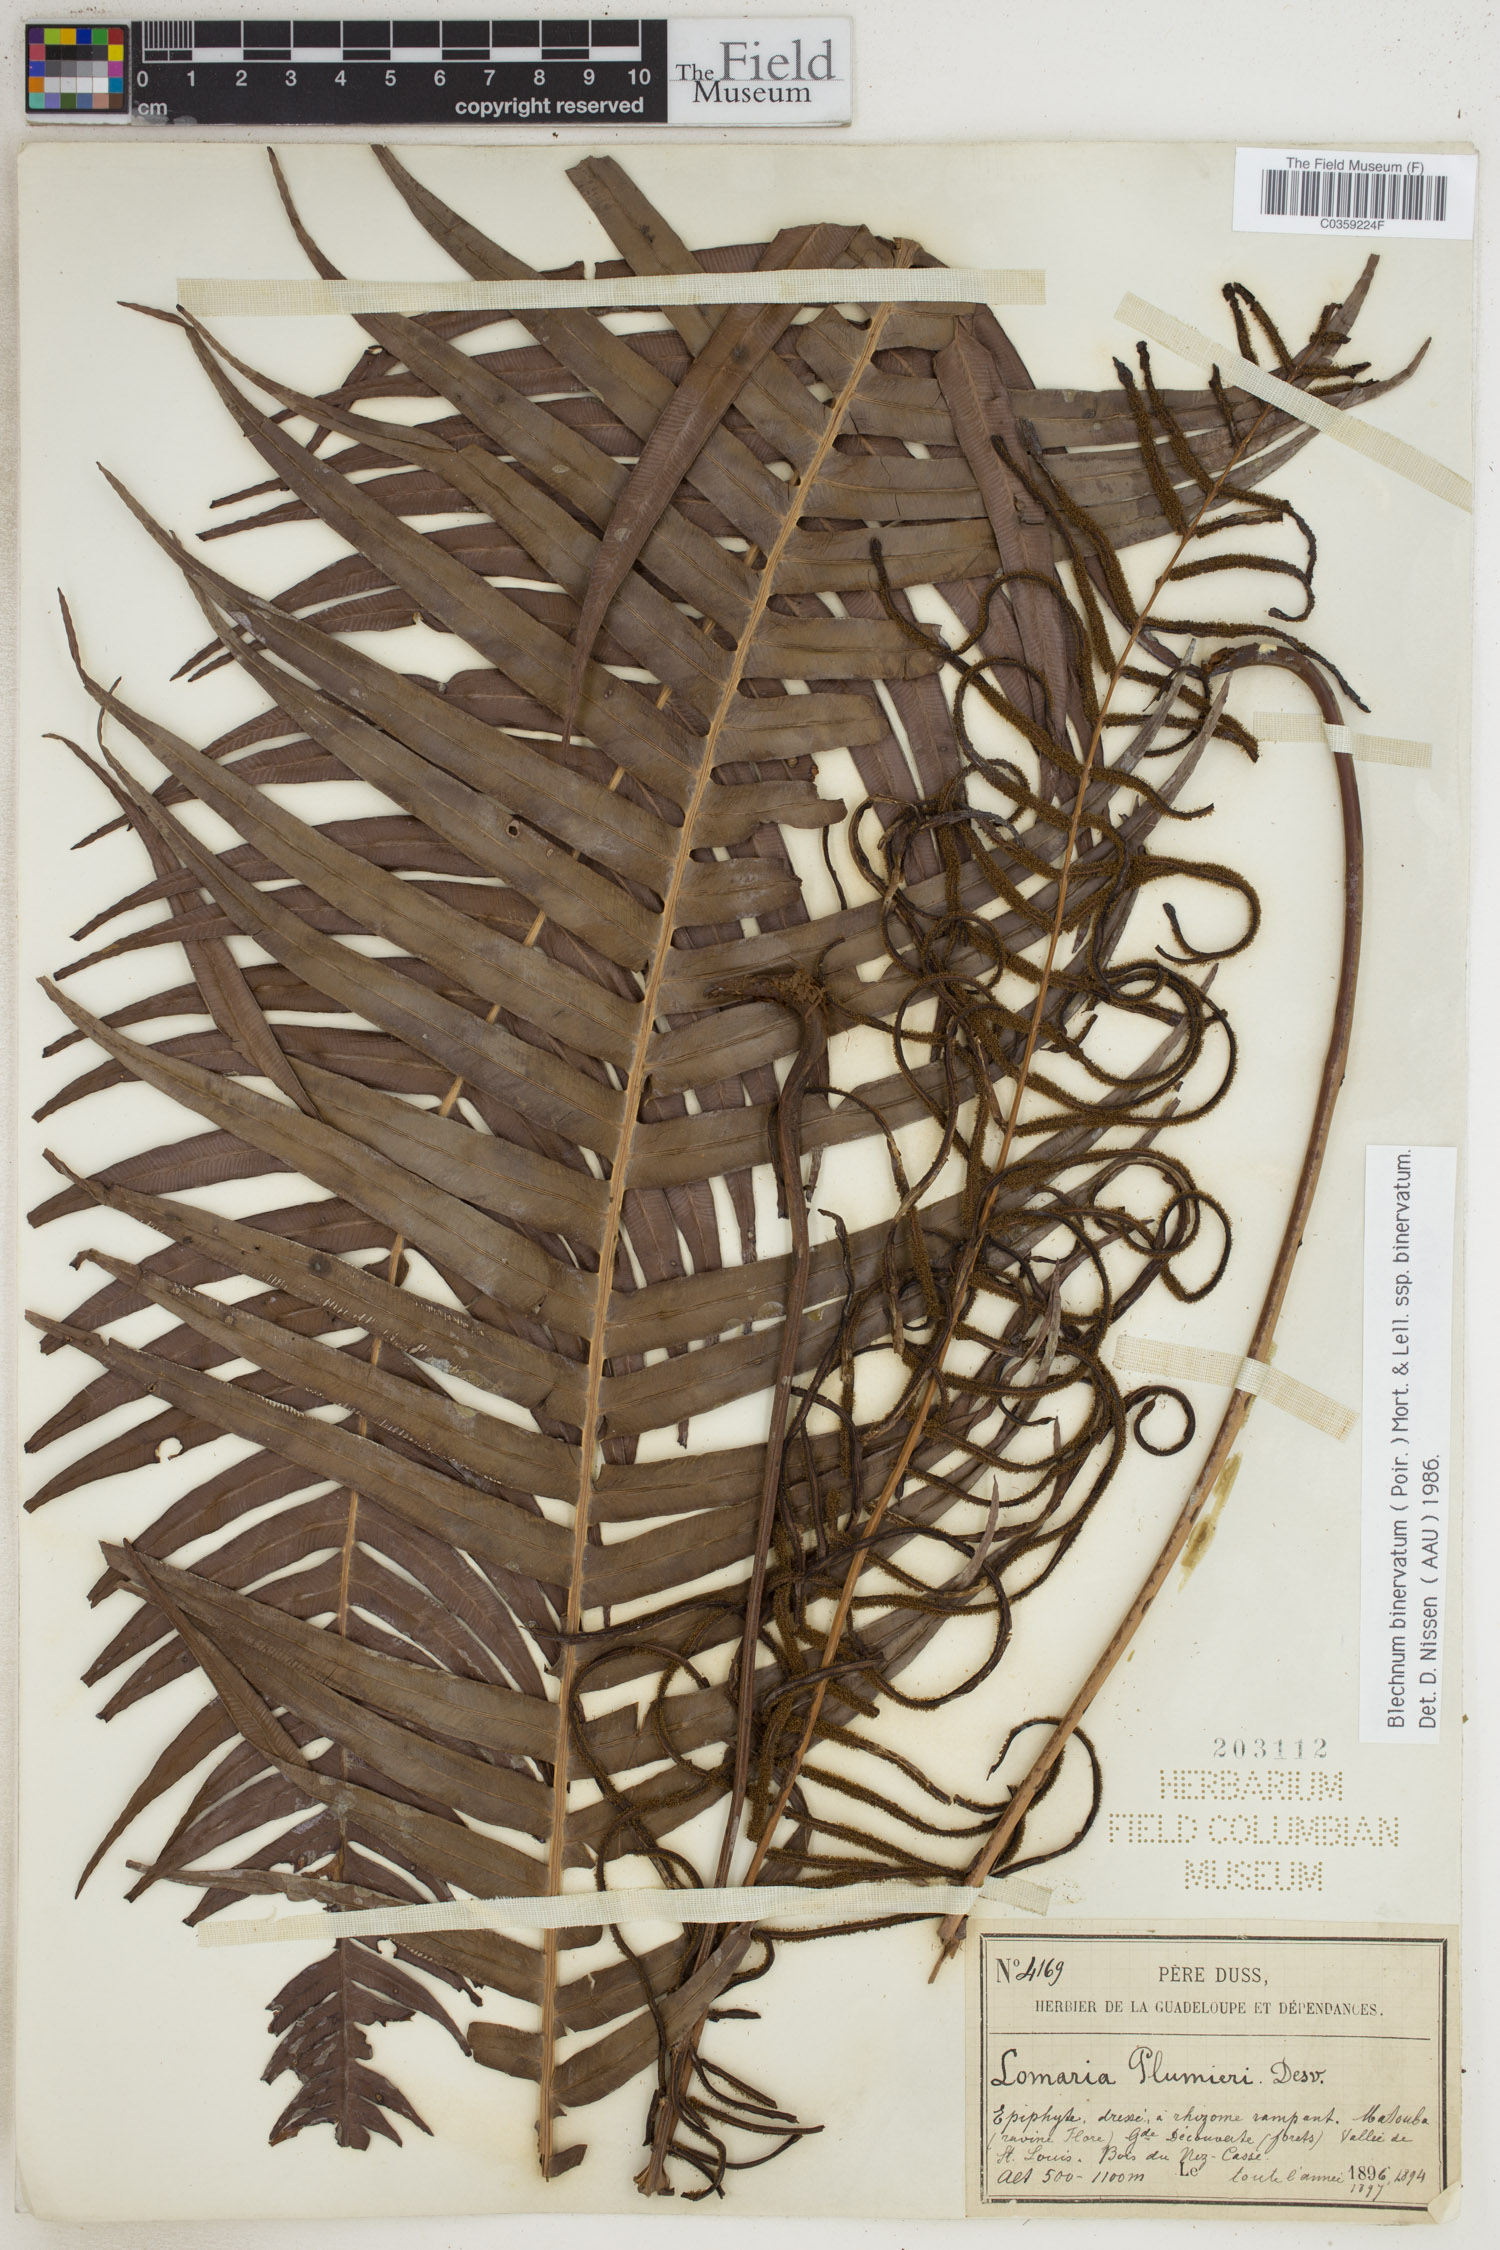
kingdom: Plantae
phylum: Tracheophyta
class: Polypodiopsida
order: Polypodiales
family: Blechnaceae
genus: Lomaridium
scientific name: Lomaridium binervatum
